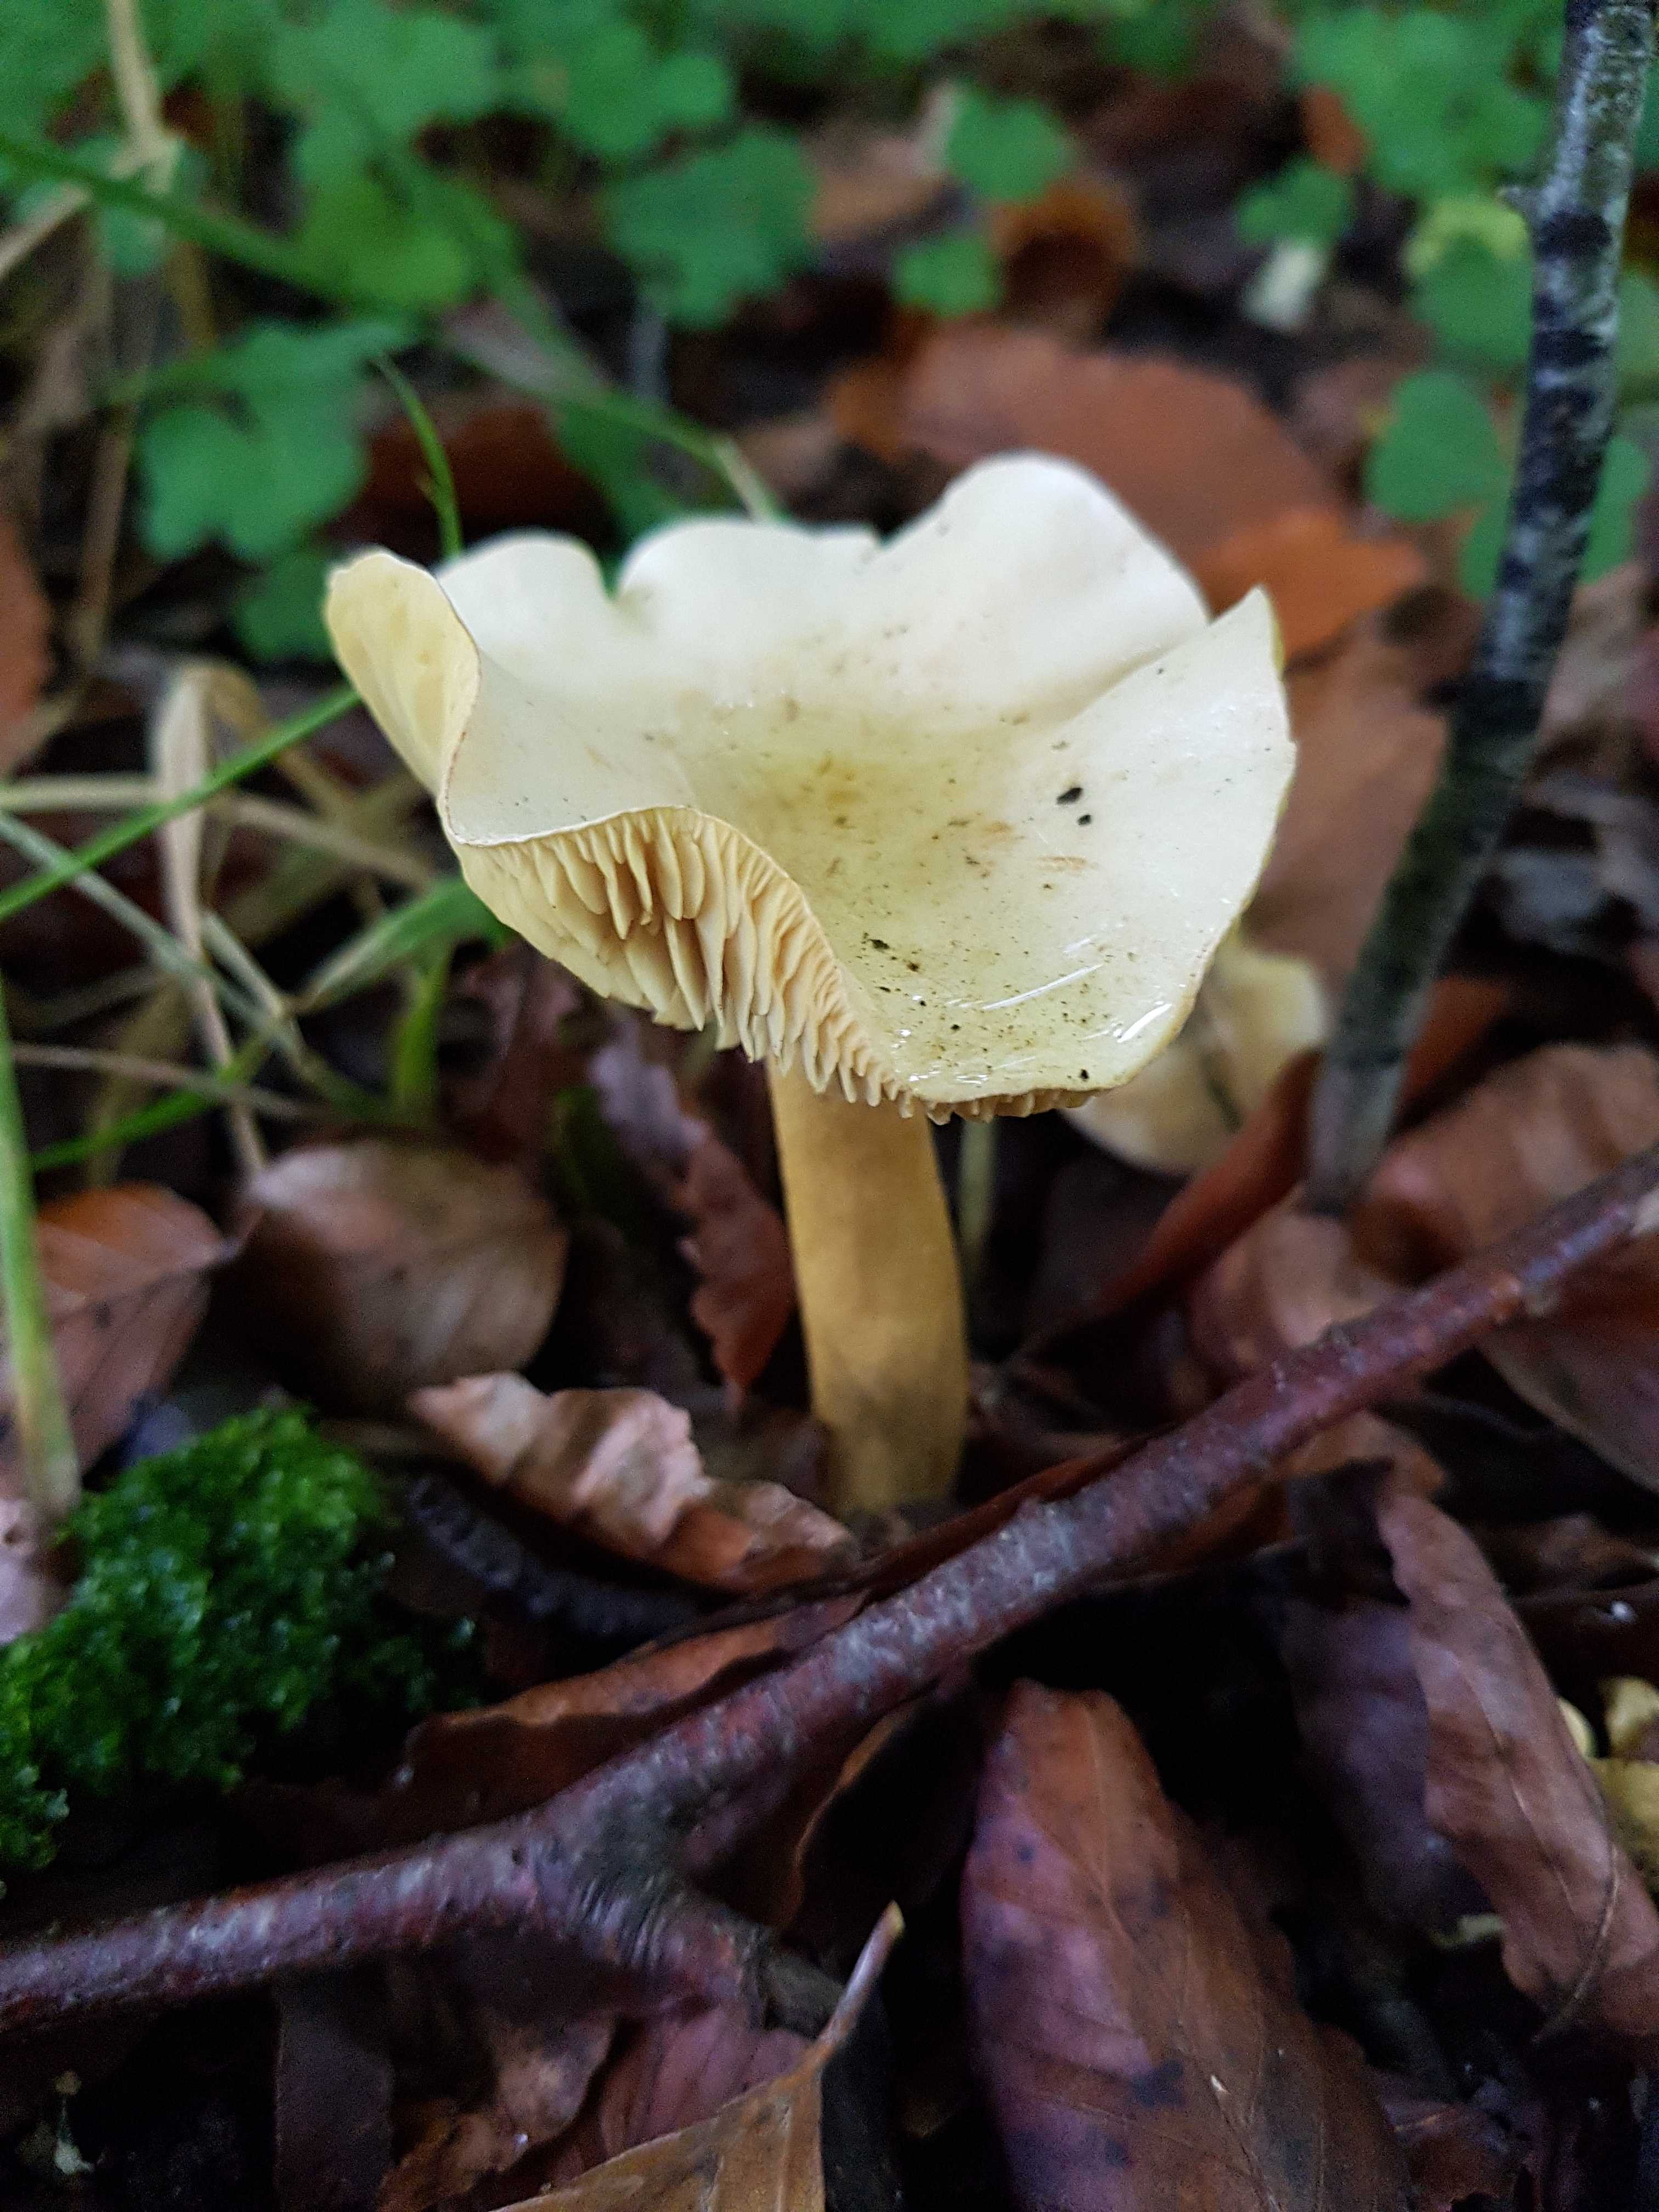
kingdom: Fungi
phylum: Basidiomycota
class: Agaricomycetes
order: Agaricales
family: Tricholomataceae
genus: Tricholoma
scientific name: Tricholoma lascivum
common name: stinkende ridderhat
